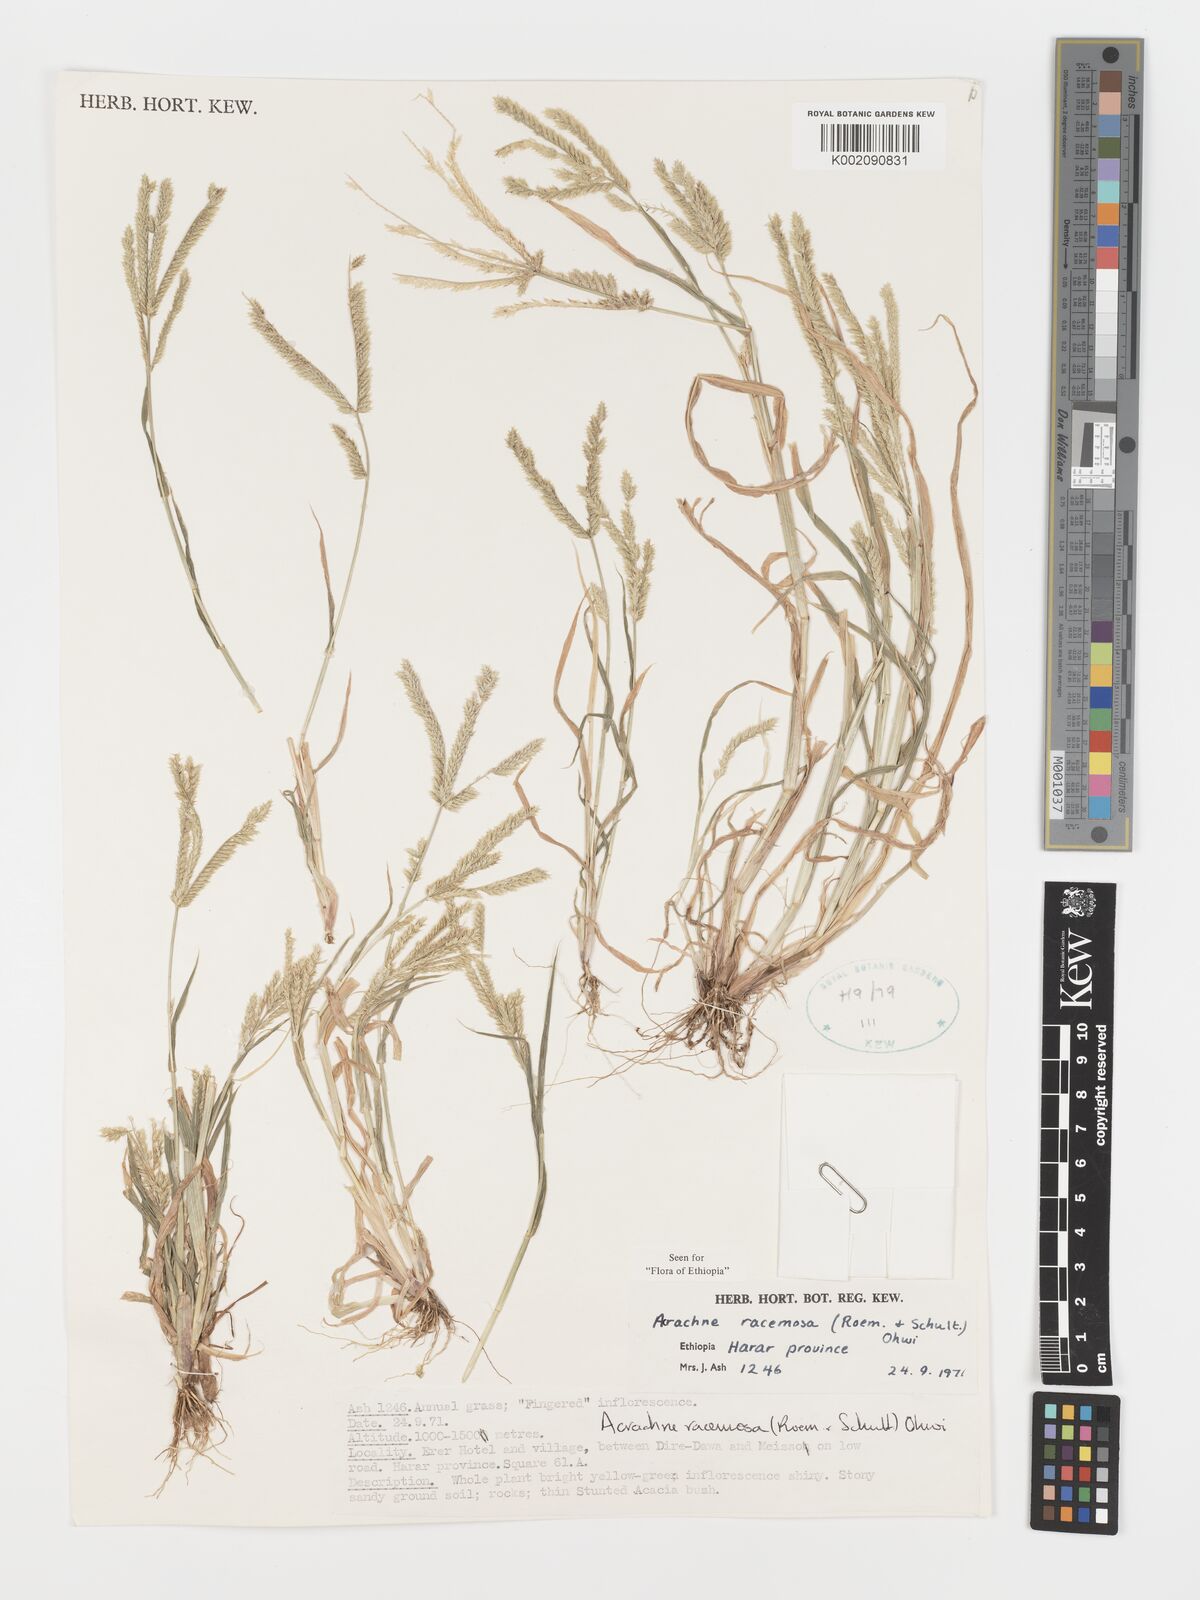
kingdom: Plantae
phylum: Tracheophyta
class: Liliopsida
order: Poales
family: Poaceae
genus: Acrachne
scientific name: Acrachne racemosa
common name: Goosegrass
